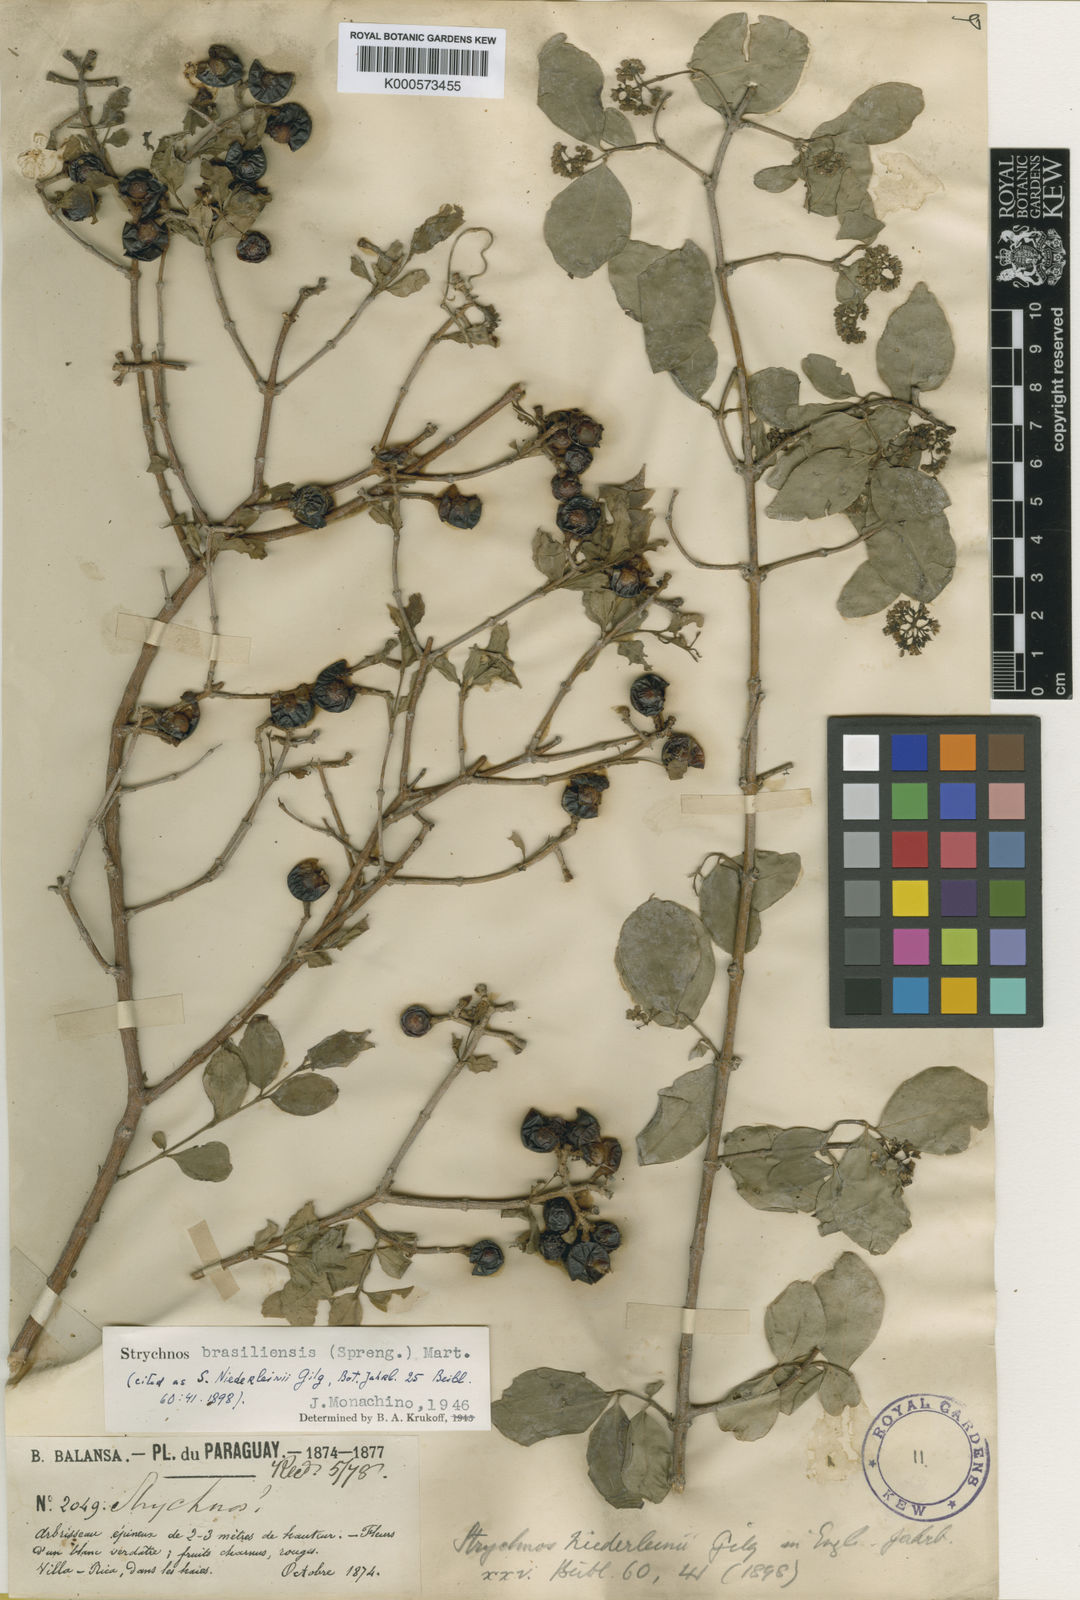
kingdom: Plantae
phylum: Tracheophyta
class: Magnoliopsida
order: Gentianales
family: Loganiaceae
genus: Strychnos
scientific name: Strychnos brasiliensis
